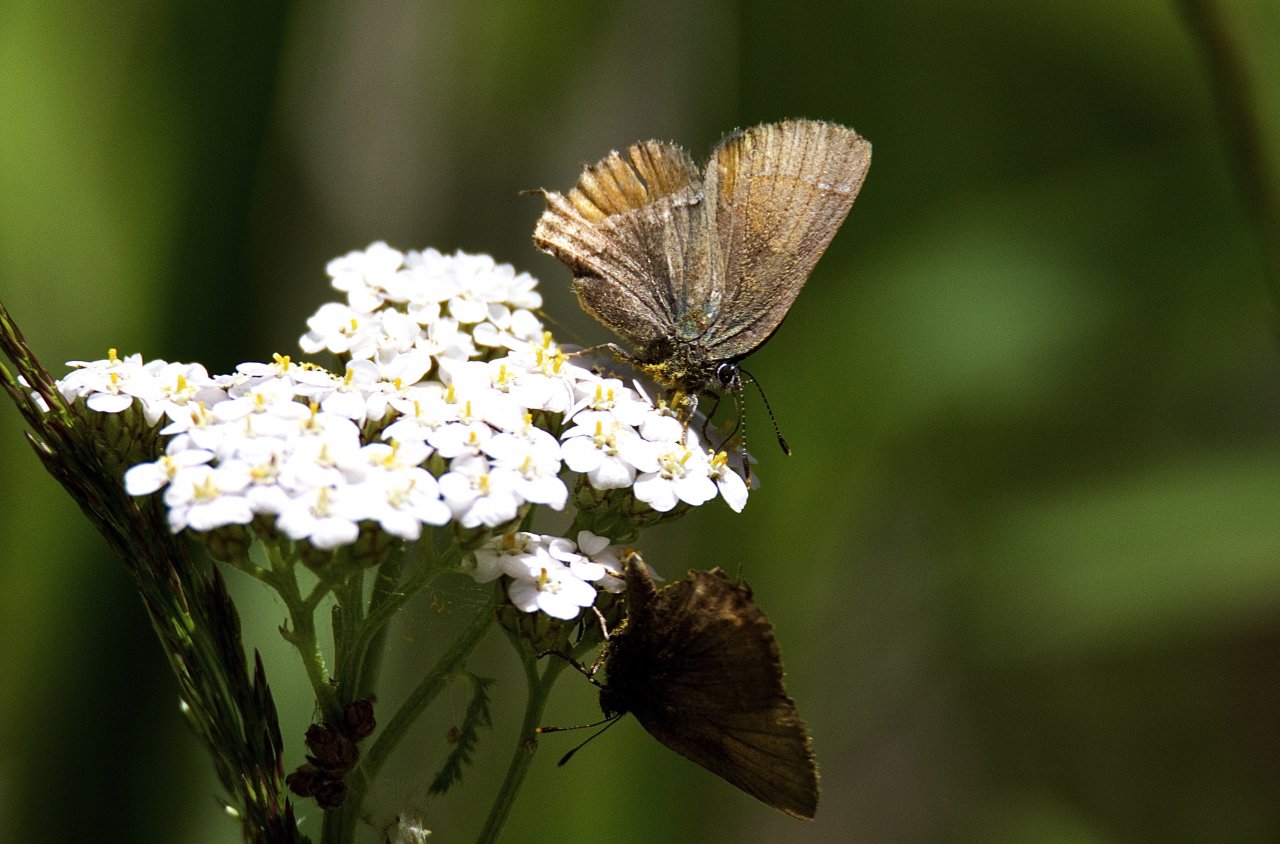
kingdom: Animalia
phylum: Arthropoda
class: Insecta
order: Lepidoptera
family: Lycaenidae
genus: Satyrium
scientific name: Satyrium
